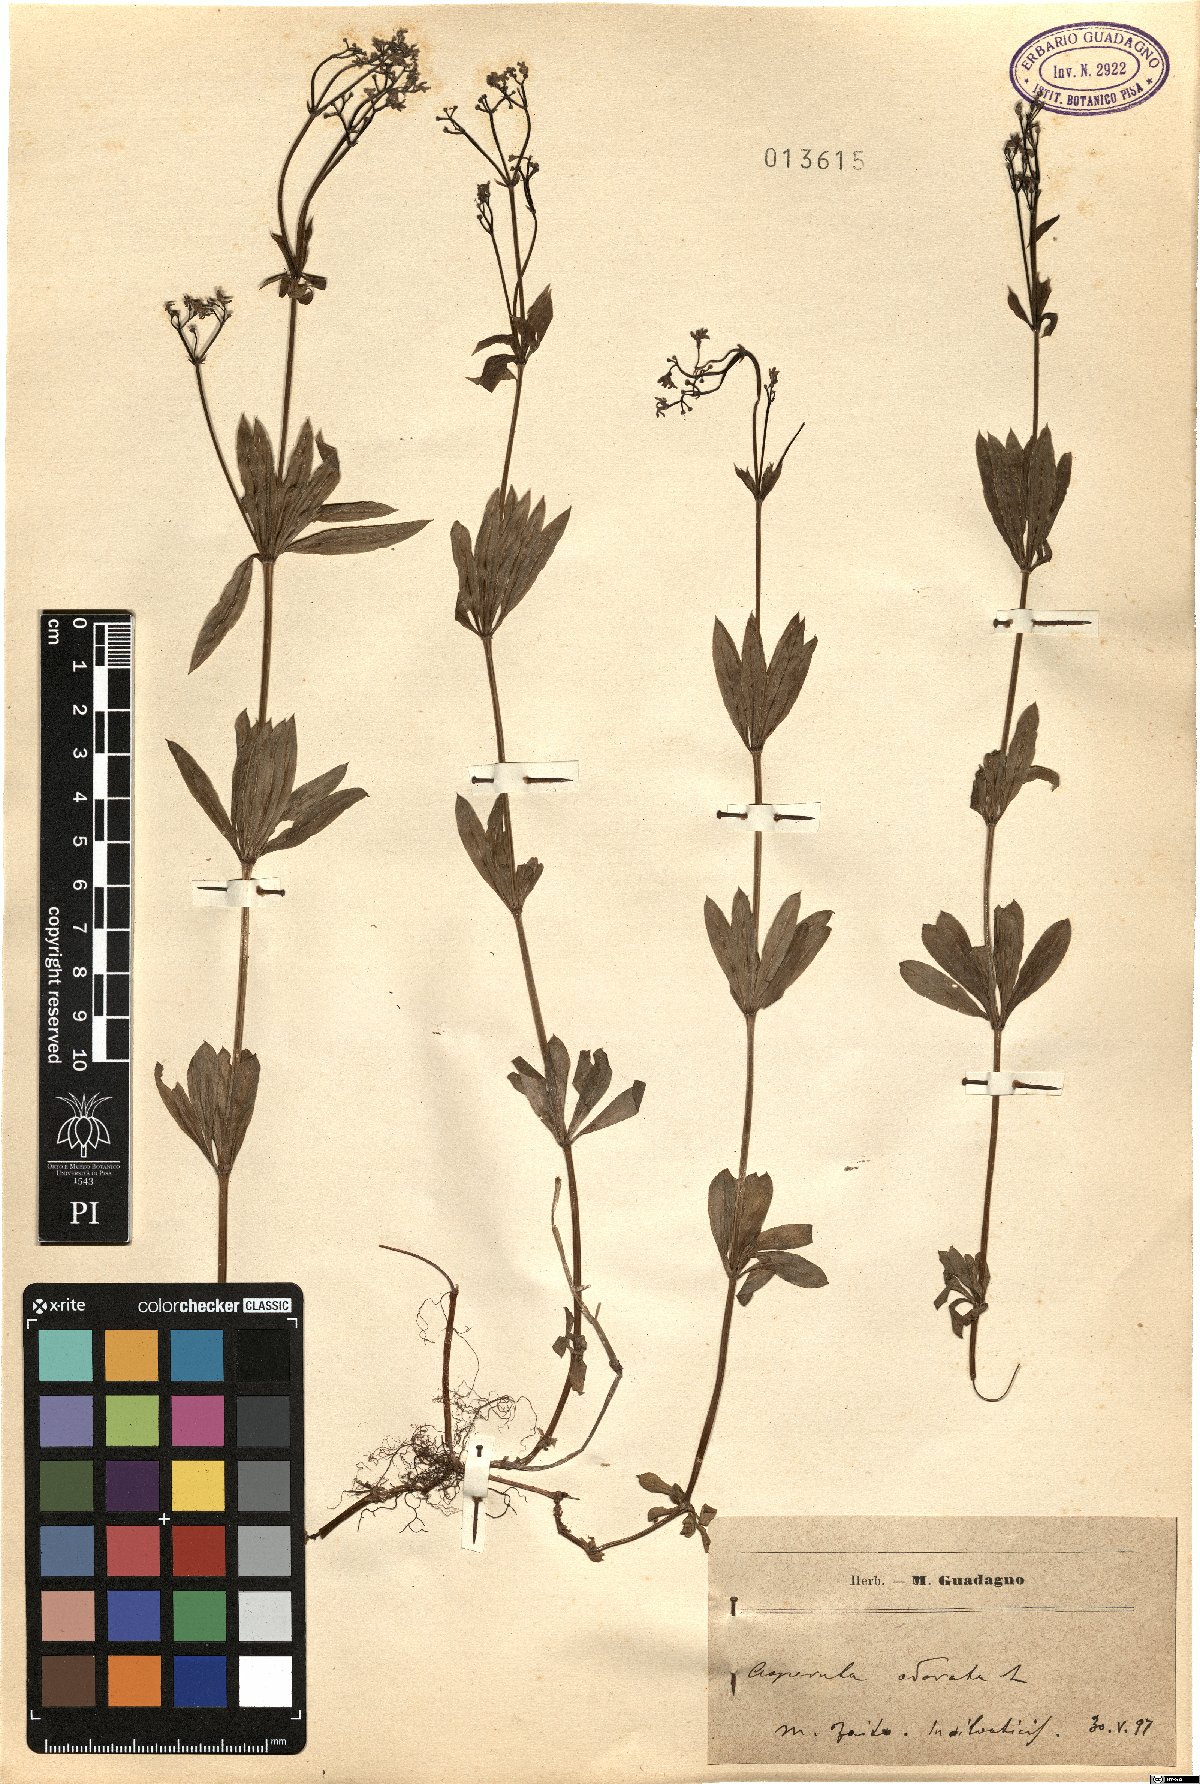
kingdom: Plantae
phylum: Tracheophyta
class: Magnoliopsida
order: Gentianales
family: Rubiaceae
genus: Galium
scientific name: Galium odoratum
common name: Sweet woodruff
